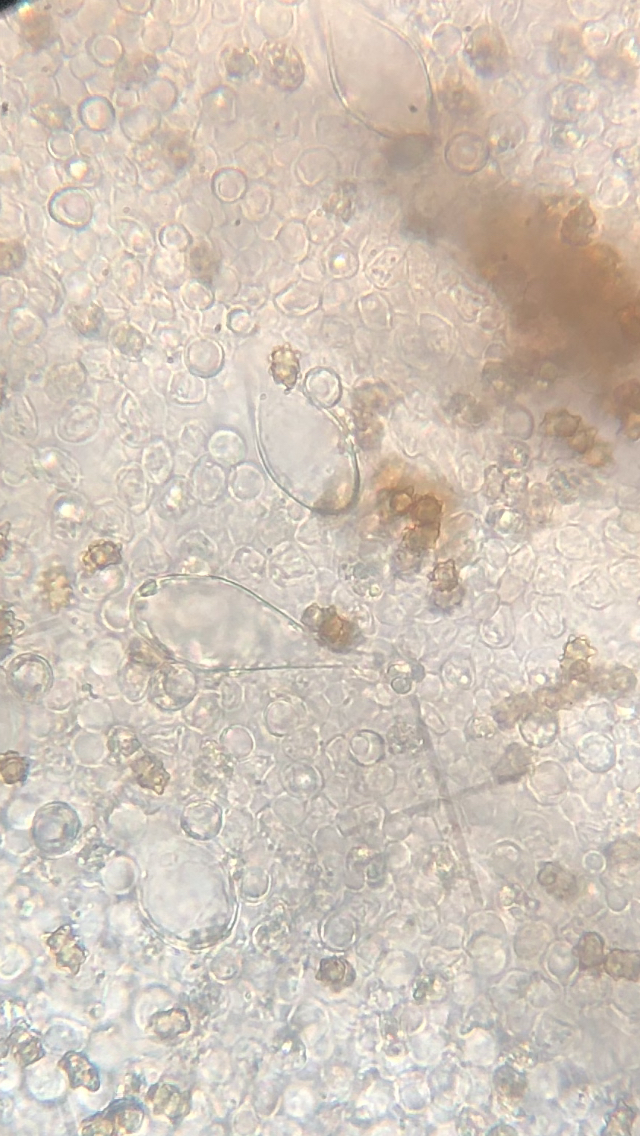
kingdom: Fungi
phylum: Basidiomycota
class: Agaricomycetes
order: Agaricales
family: Inocybaceae
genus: Inocybe
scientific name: Inocybe lanuginosa
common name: uldskællet trævlhat
